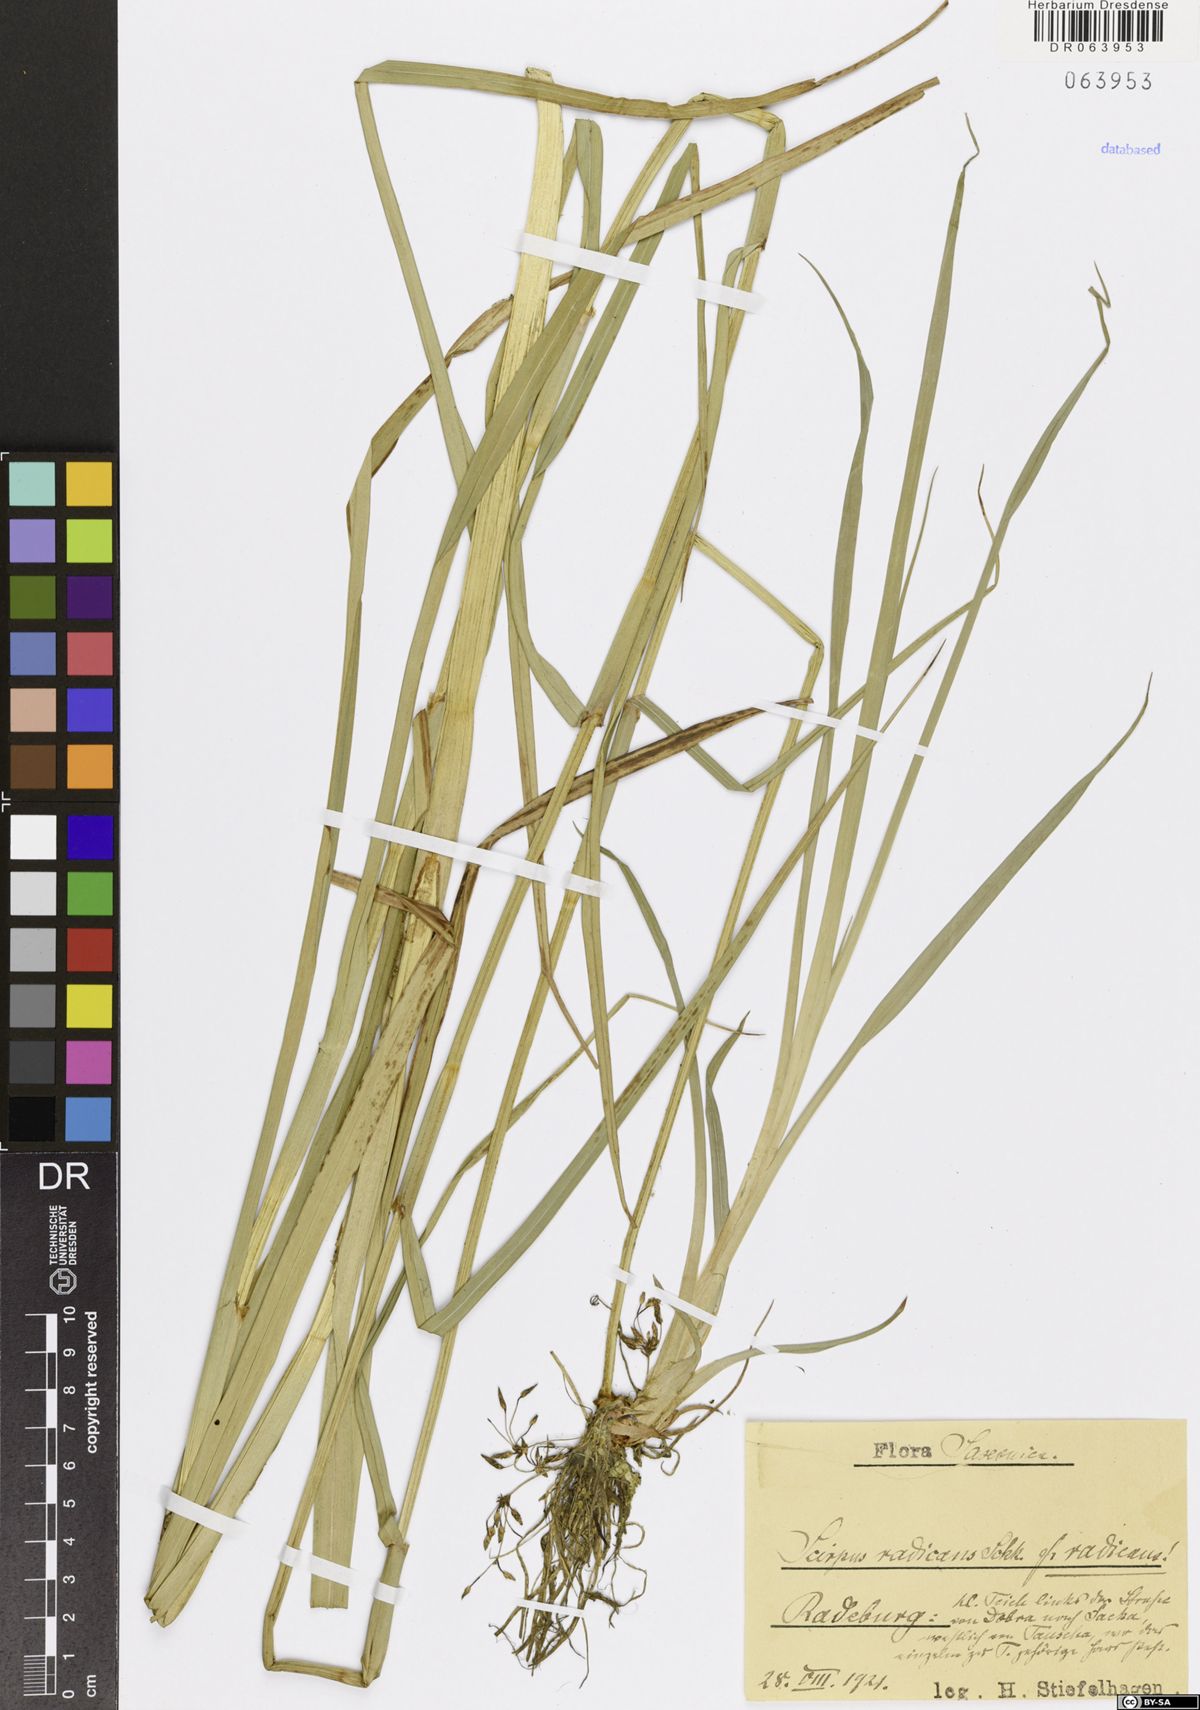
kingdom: Plantae
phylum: Tracheophyta
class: Liliopsida
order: Poales
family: Cyperaceae
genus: Scirpus
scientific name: Scirpus radicans
